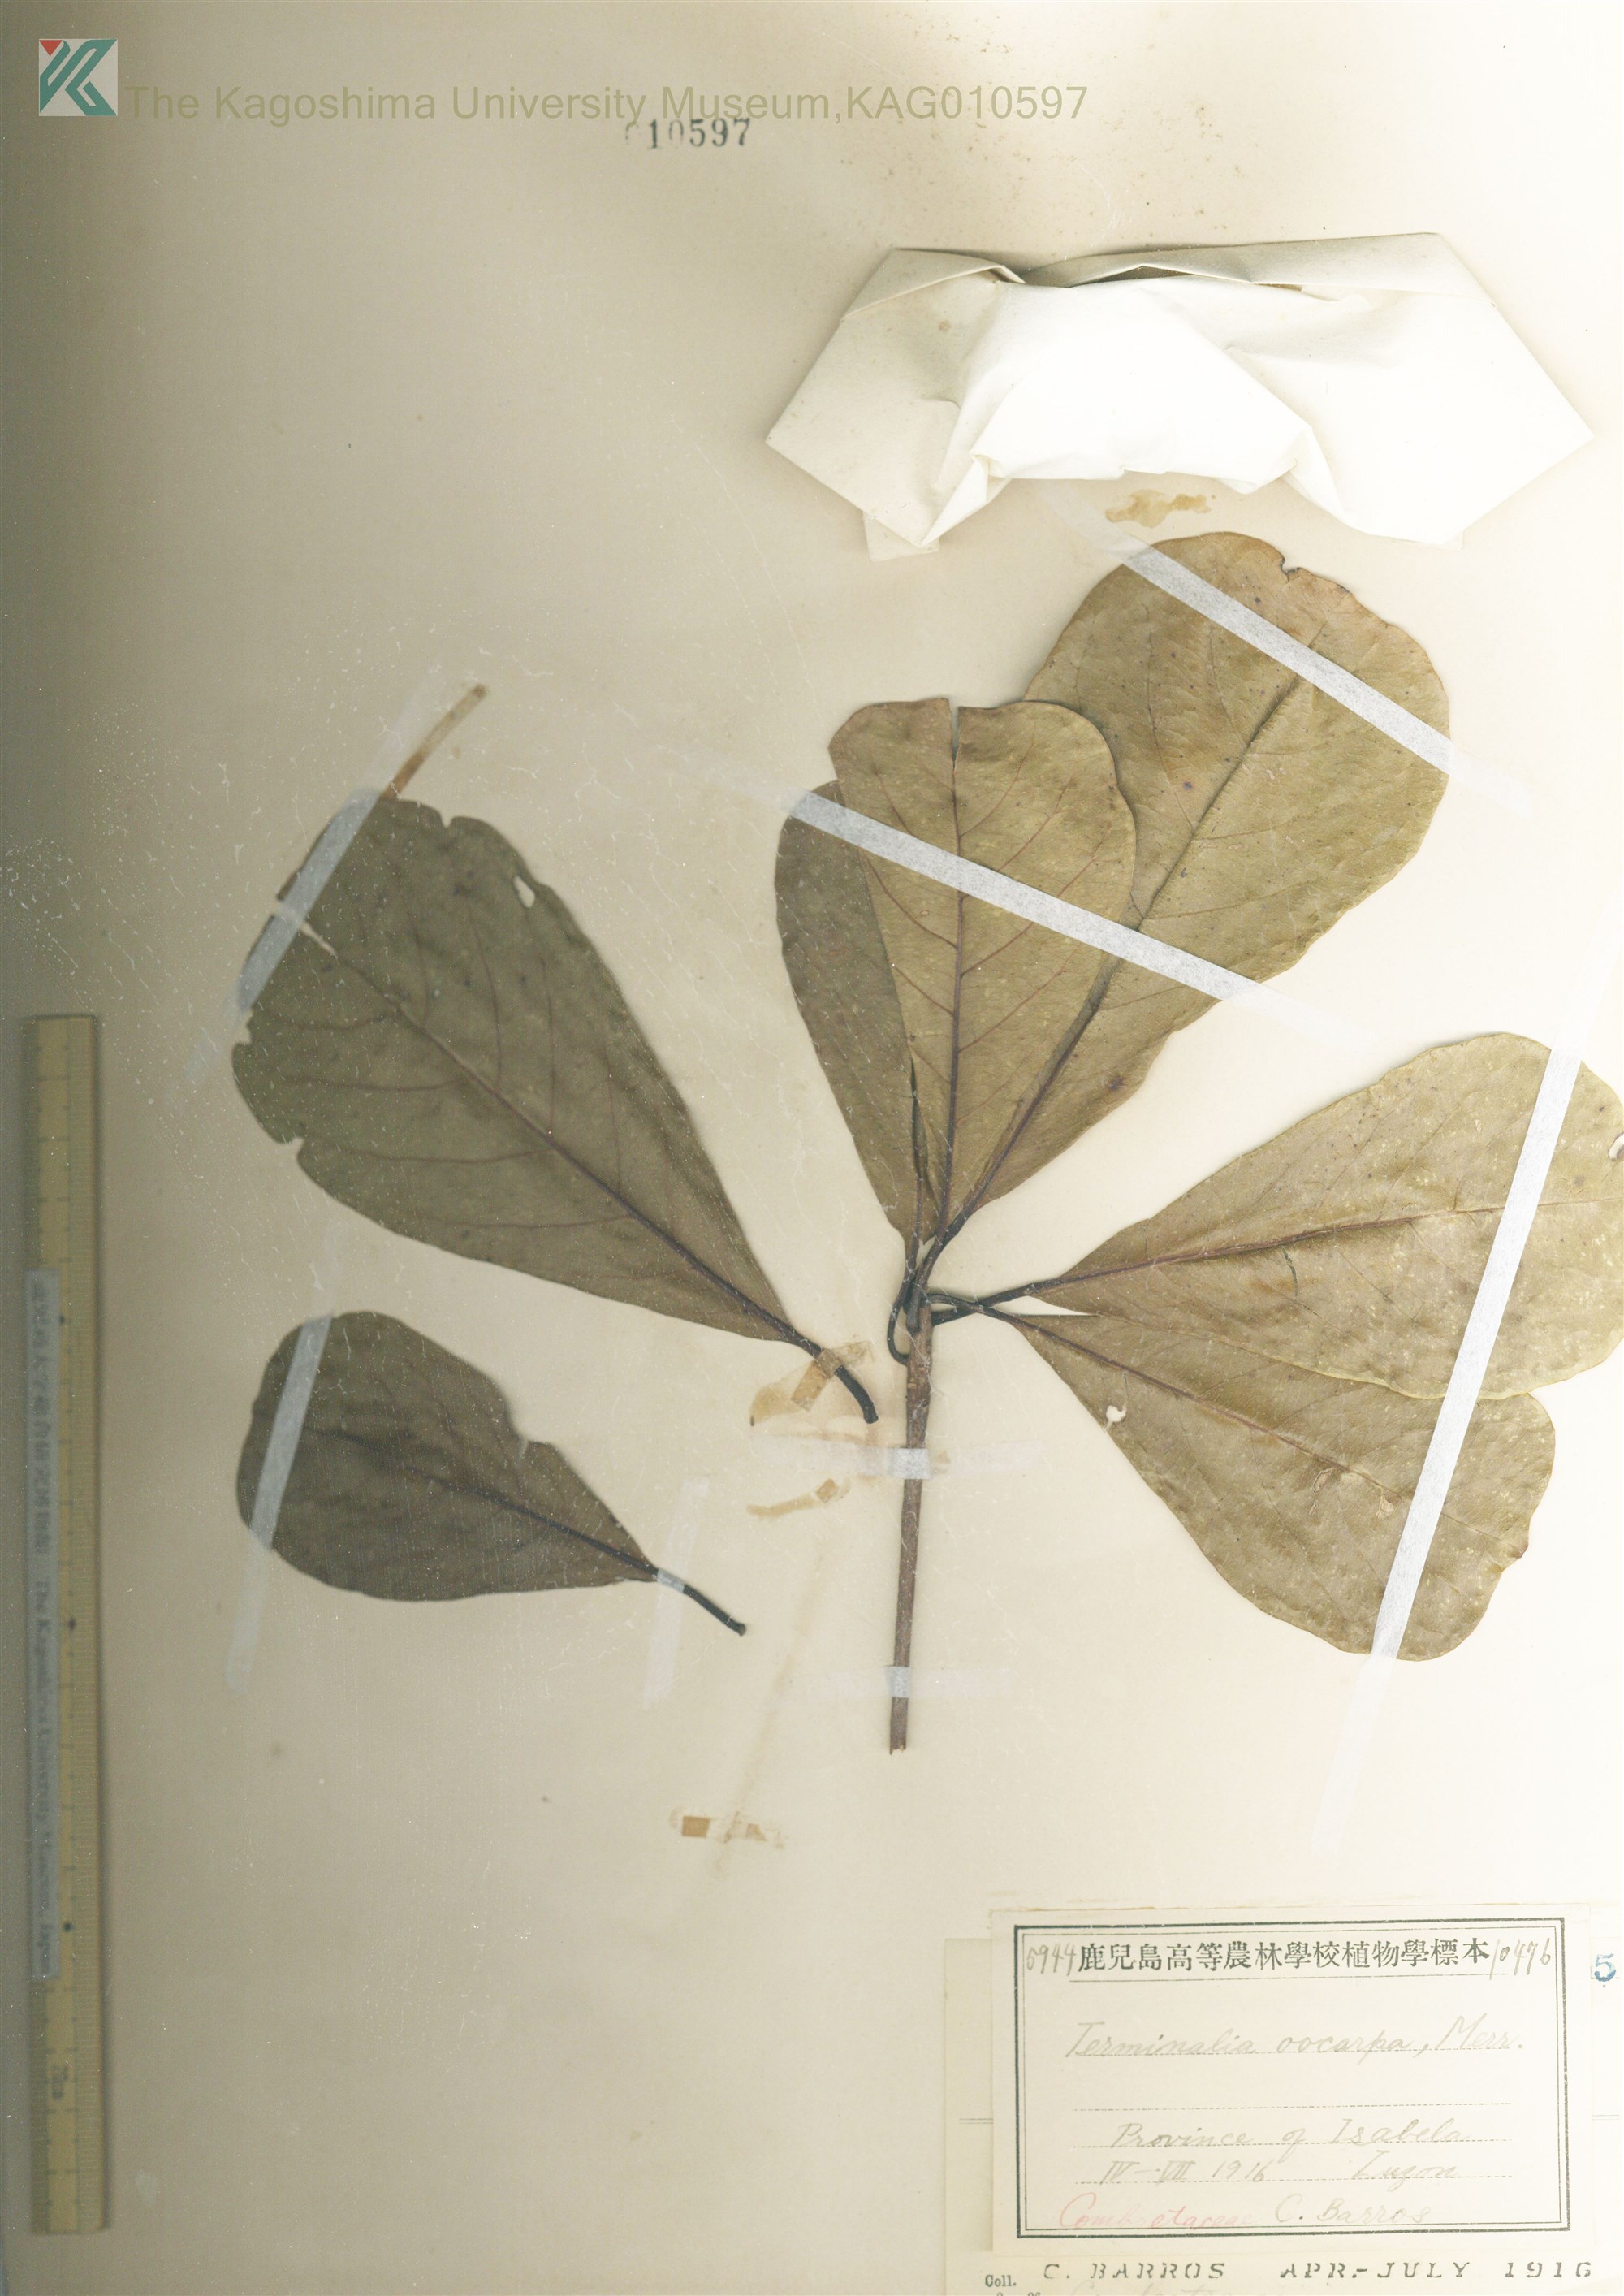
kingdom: Plantae
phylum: Tracheophyta
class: Magnoliopsida
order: Myrtales
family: Combretaceae
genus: Terminalia
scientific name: Terminalia foetidissima
